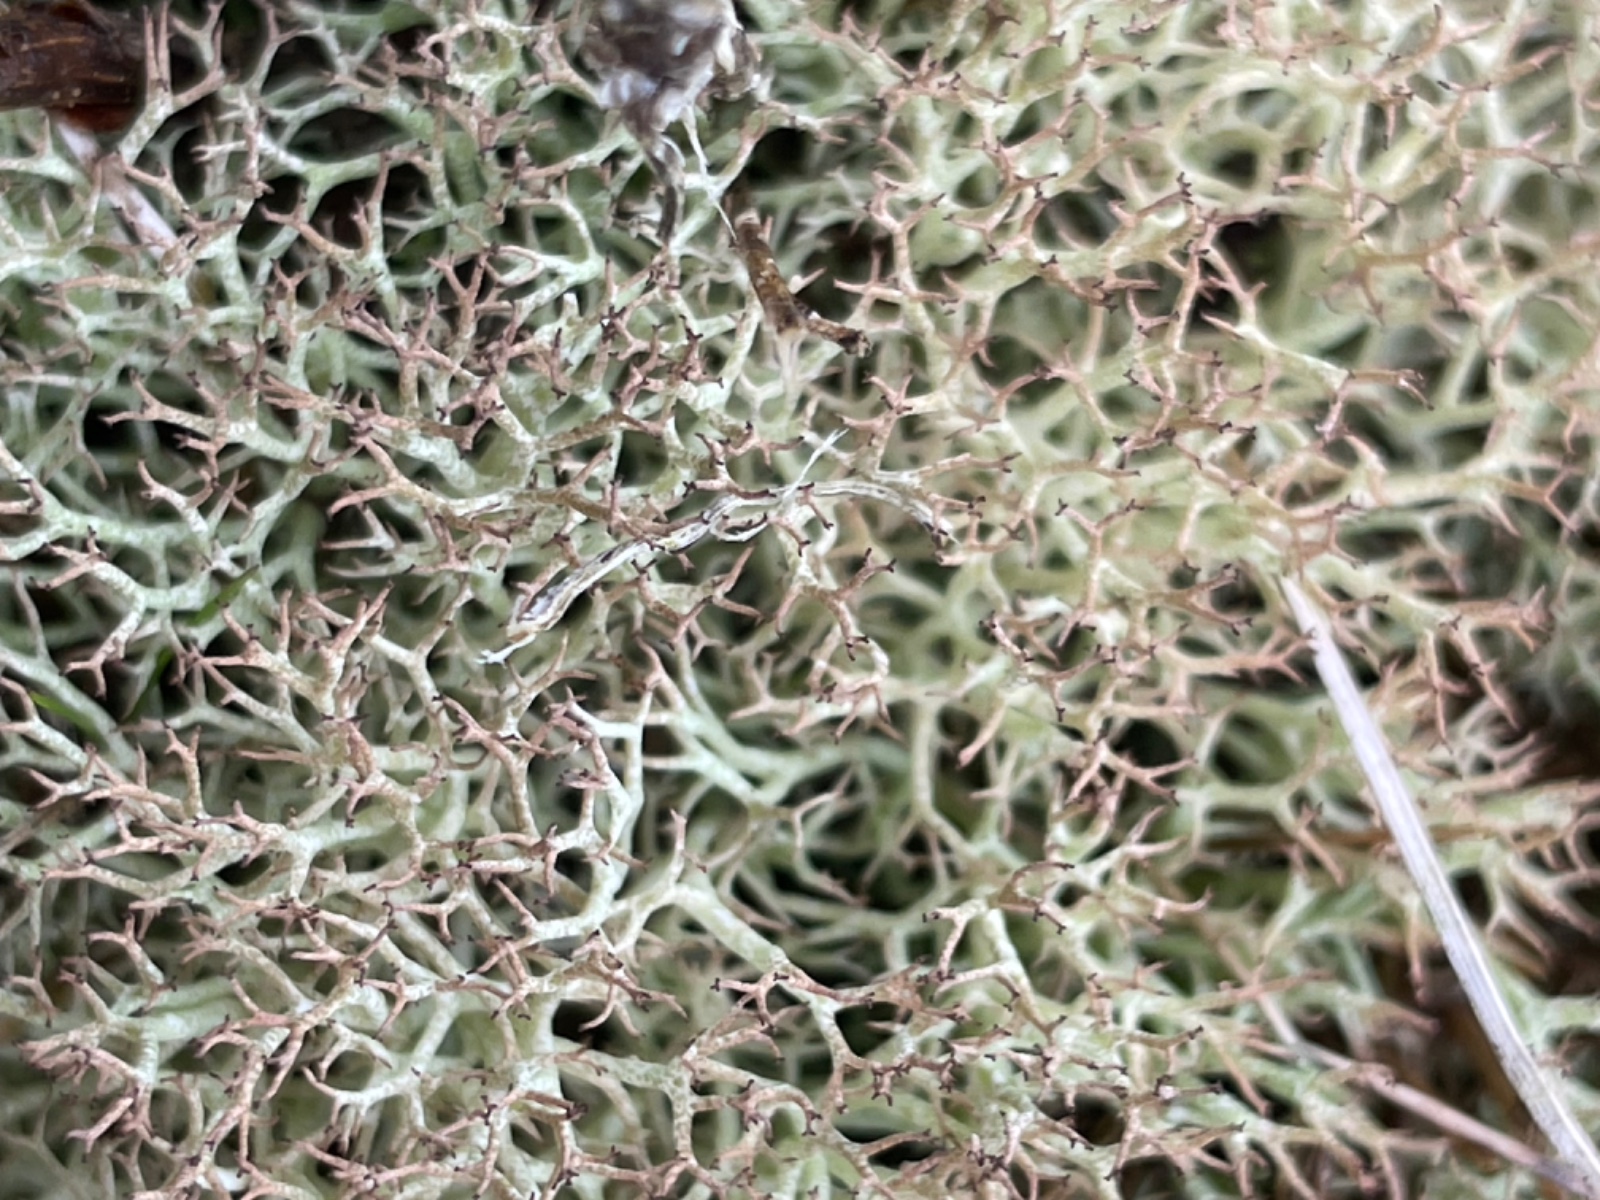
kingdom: Fungi
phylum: Ascomycota
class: Lecanoromycetes
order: Lecanorales
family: Cladoniaceae
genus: Cladonia
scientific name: Cladonia rangiformis
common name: spættet bægerlav
